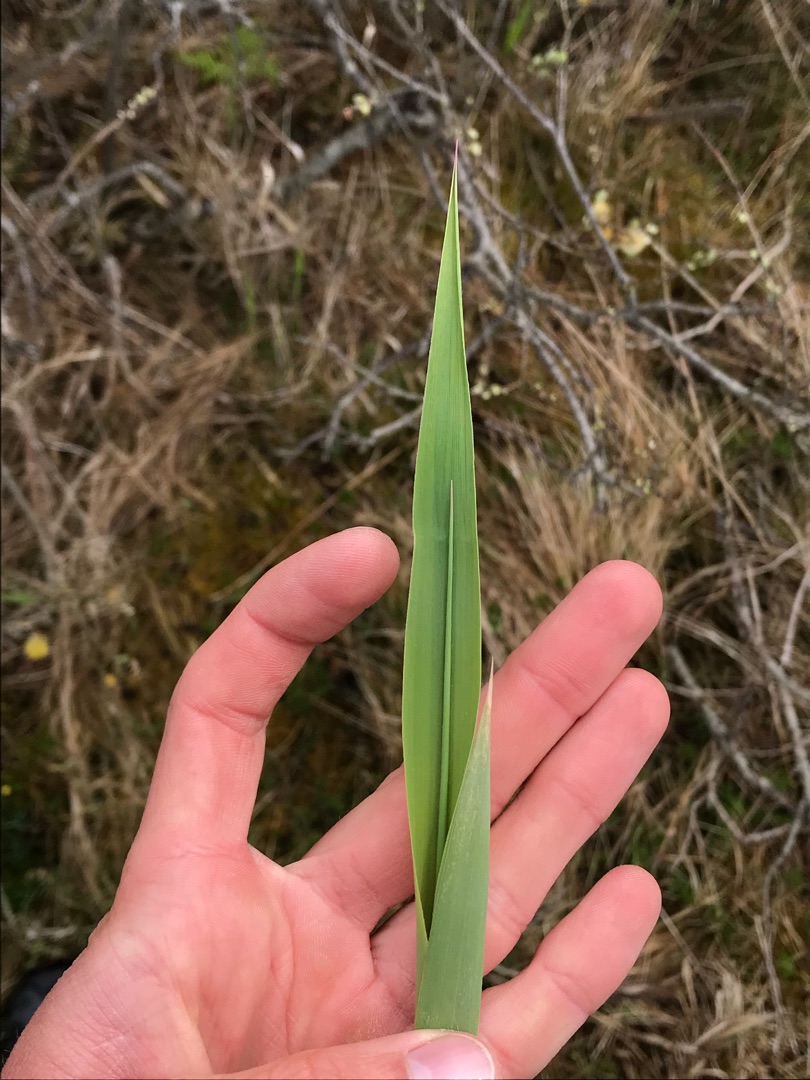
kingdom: Plantae
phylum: Tracheophyta
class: Liliopsida
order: Poales
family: Poaceae
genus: Phragmites
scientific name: Phragmites australis
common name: Tagrør
